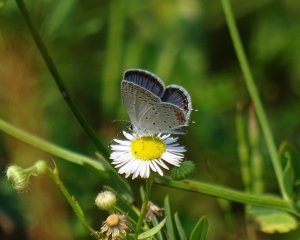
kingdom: Animalia
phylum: Arthropoda
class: Insecta
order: Lepidoptera
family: Lycaenidae
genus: Elkalyce
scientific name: Elkalyce comyntas
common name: Eastern Tailed-Blue
